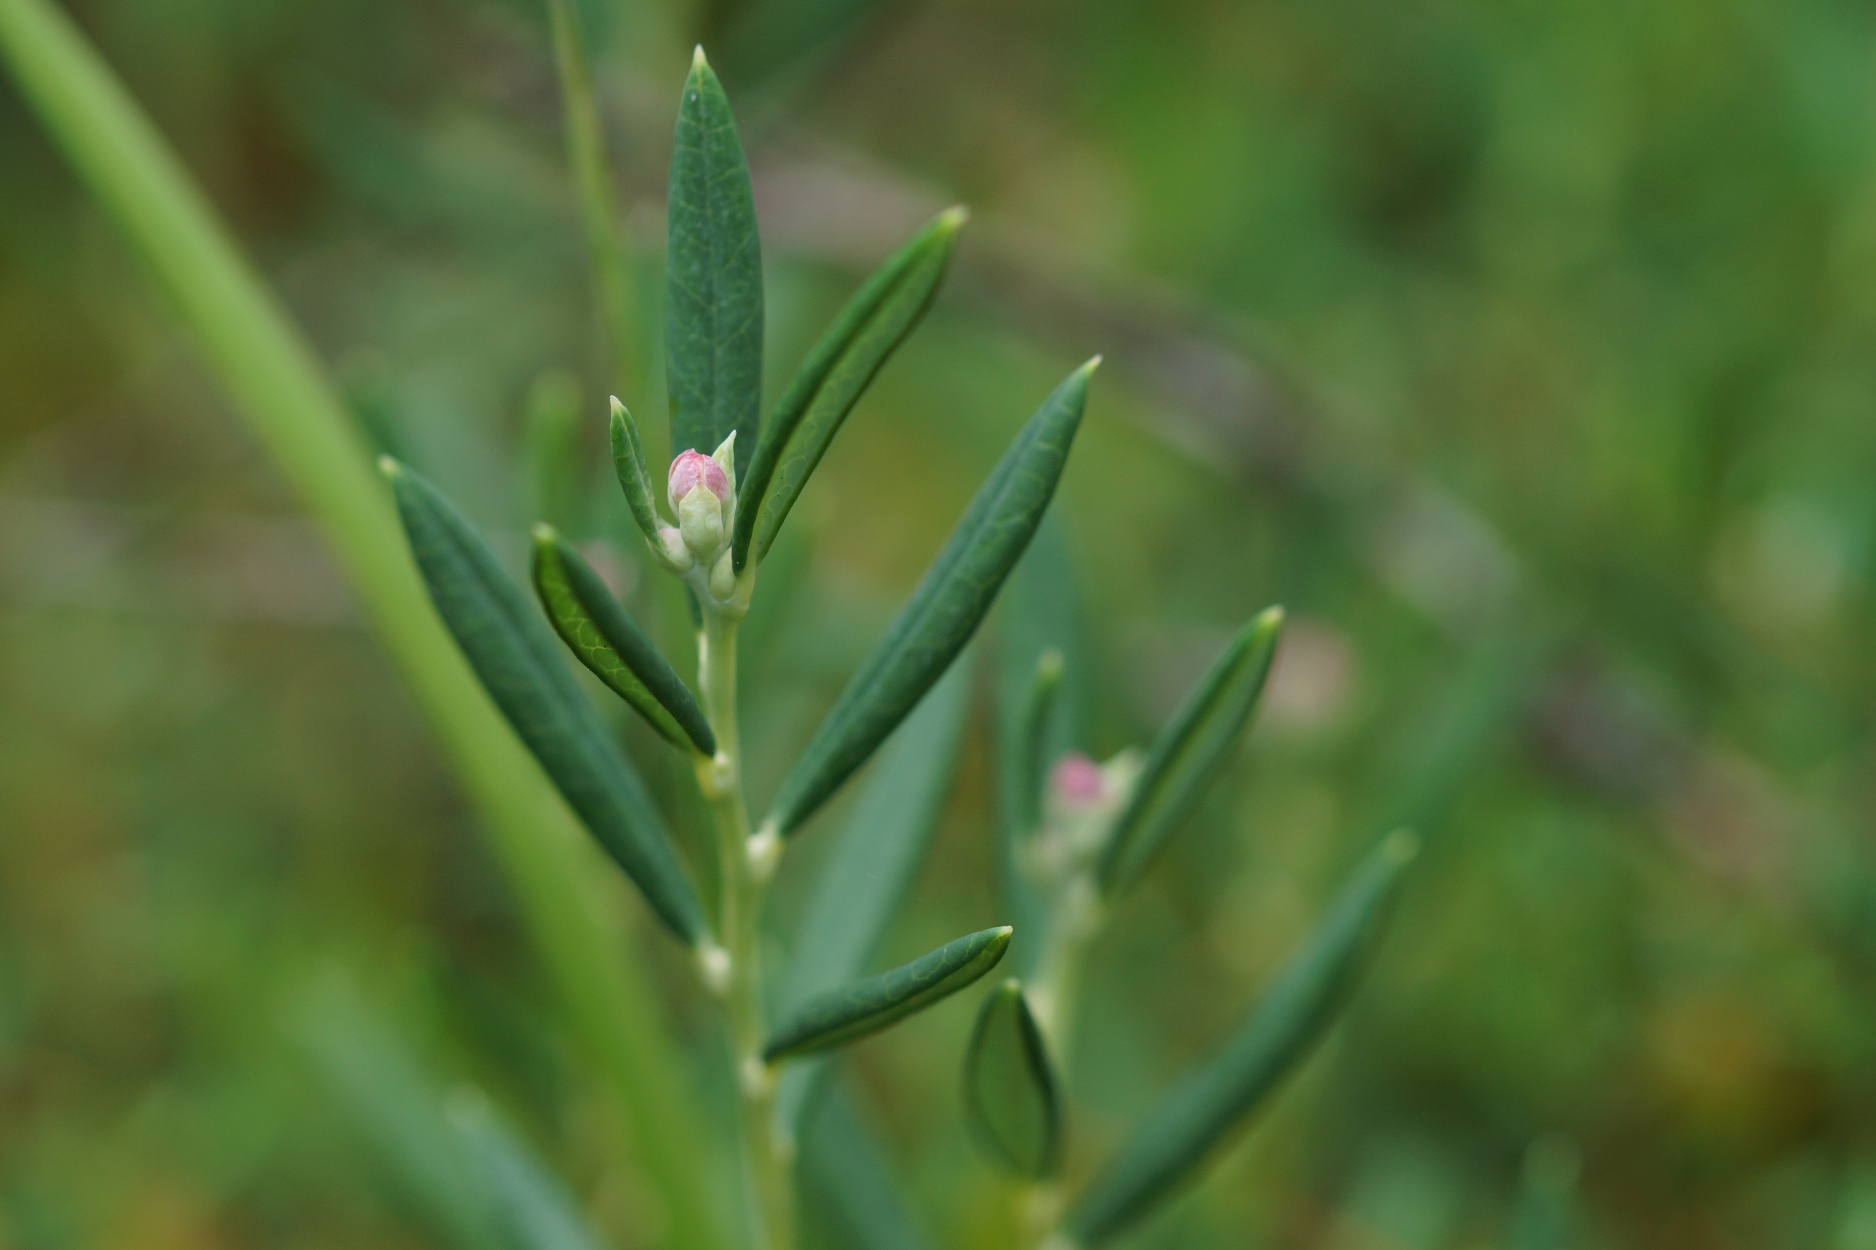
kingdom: Plantae
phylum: Tracheophyta
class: Magnoliopsida
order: Ericales
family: Ericaceae
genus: Andromeda
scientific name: Andromeda polifolia
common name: Rosmarinlyng
